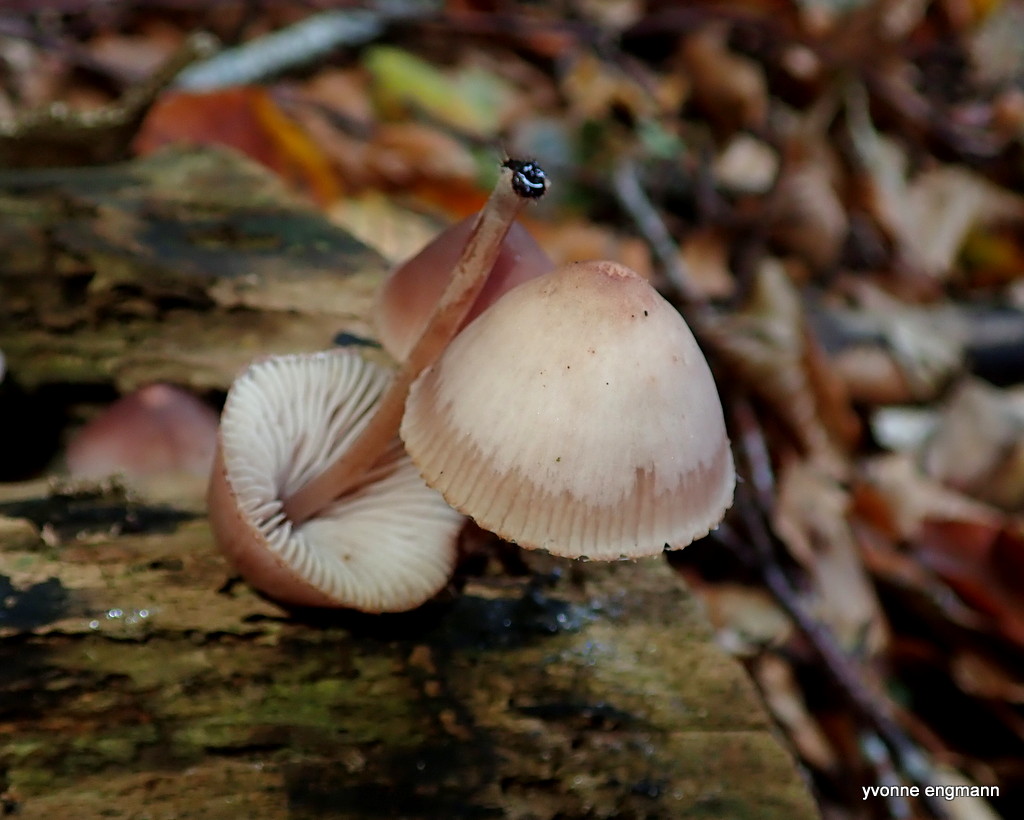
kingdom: Fungi
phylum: Basidiomycota
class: Agaricomycetes
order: Agaricales
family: Mycenaceae
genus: Mycena
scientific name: Mycena haematopus
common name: blødende huesvamp
